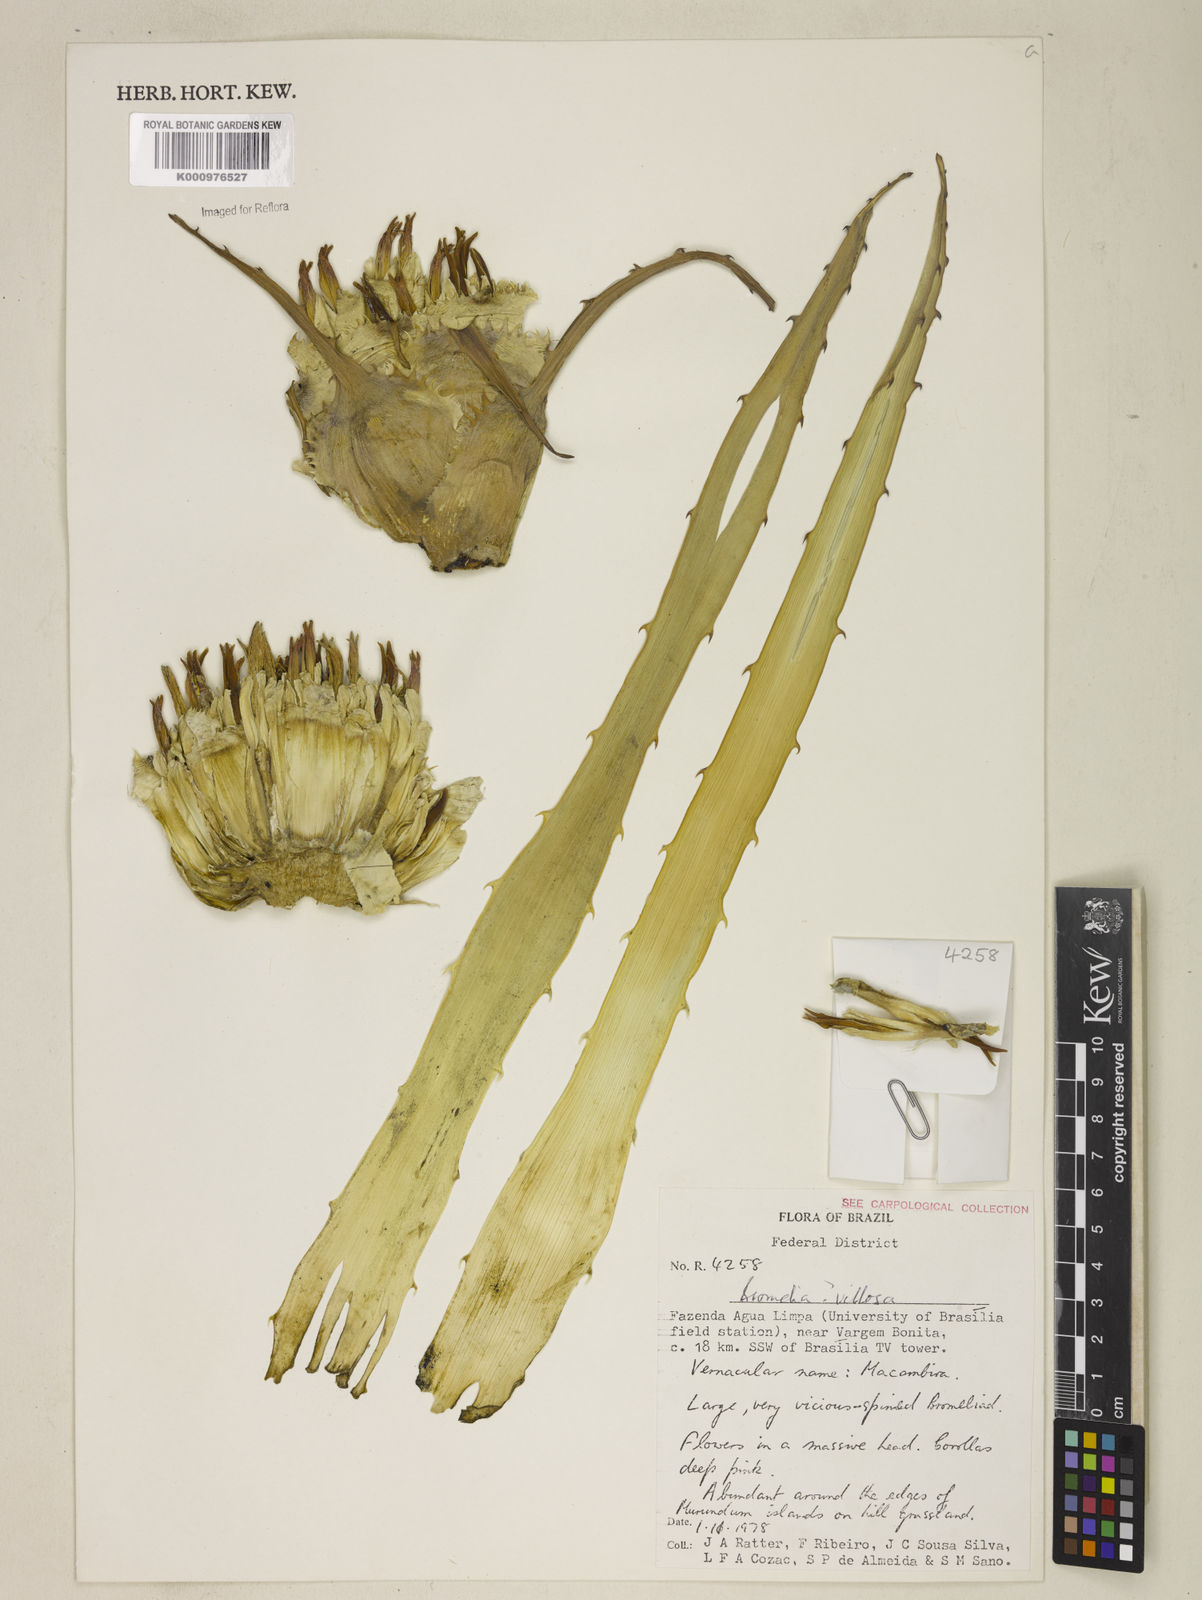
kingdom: Plantae
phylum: Tracheophyta
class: Liliopsida
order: Poales
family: Bromeliaceae
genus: Bromelia
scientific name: Bromelia villosa
